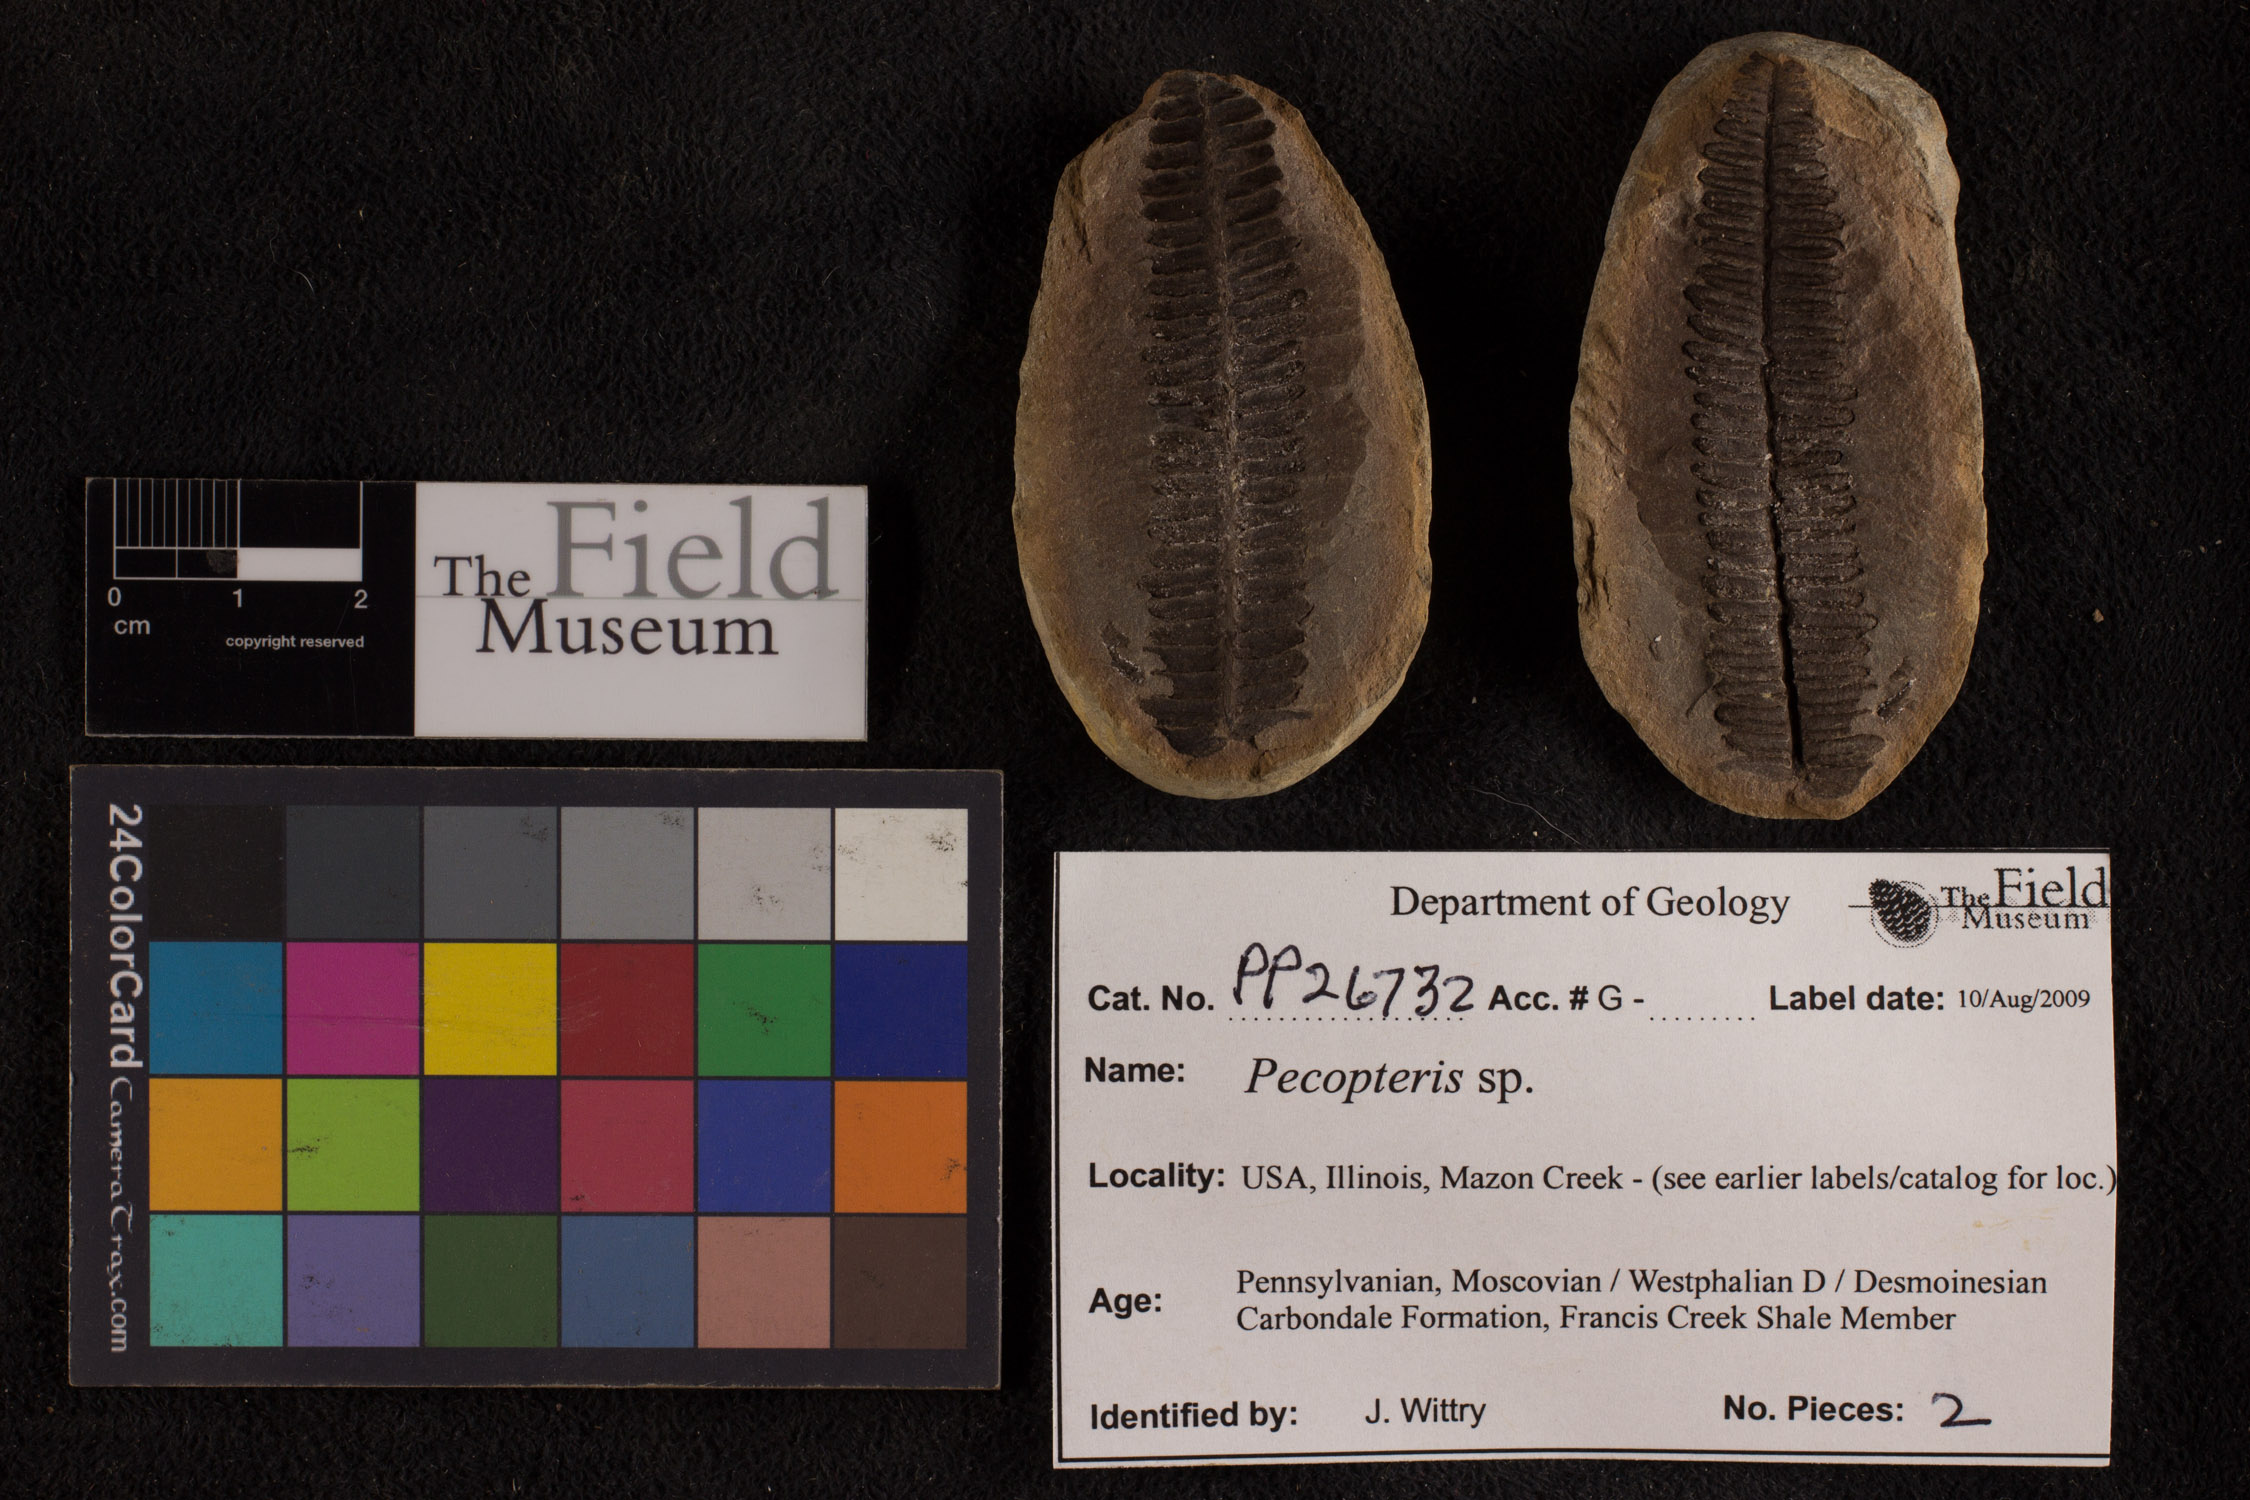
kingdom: Plantae
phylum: Tracheophyta
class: Polypodiopsida
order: Marattiales
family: Asterothecaceae
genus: Pecopteris
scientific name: Pecopteris
